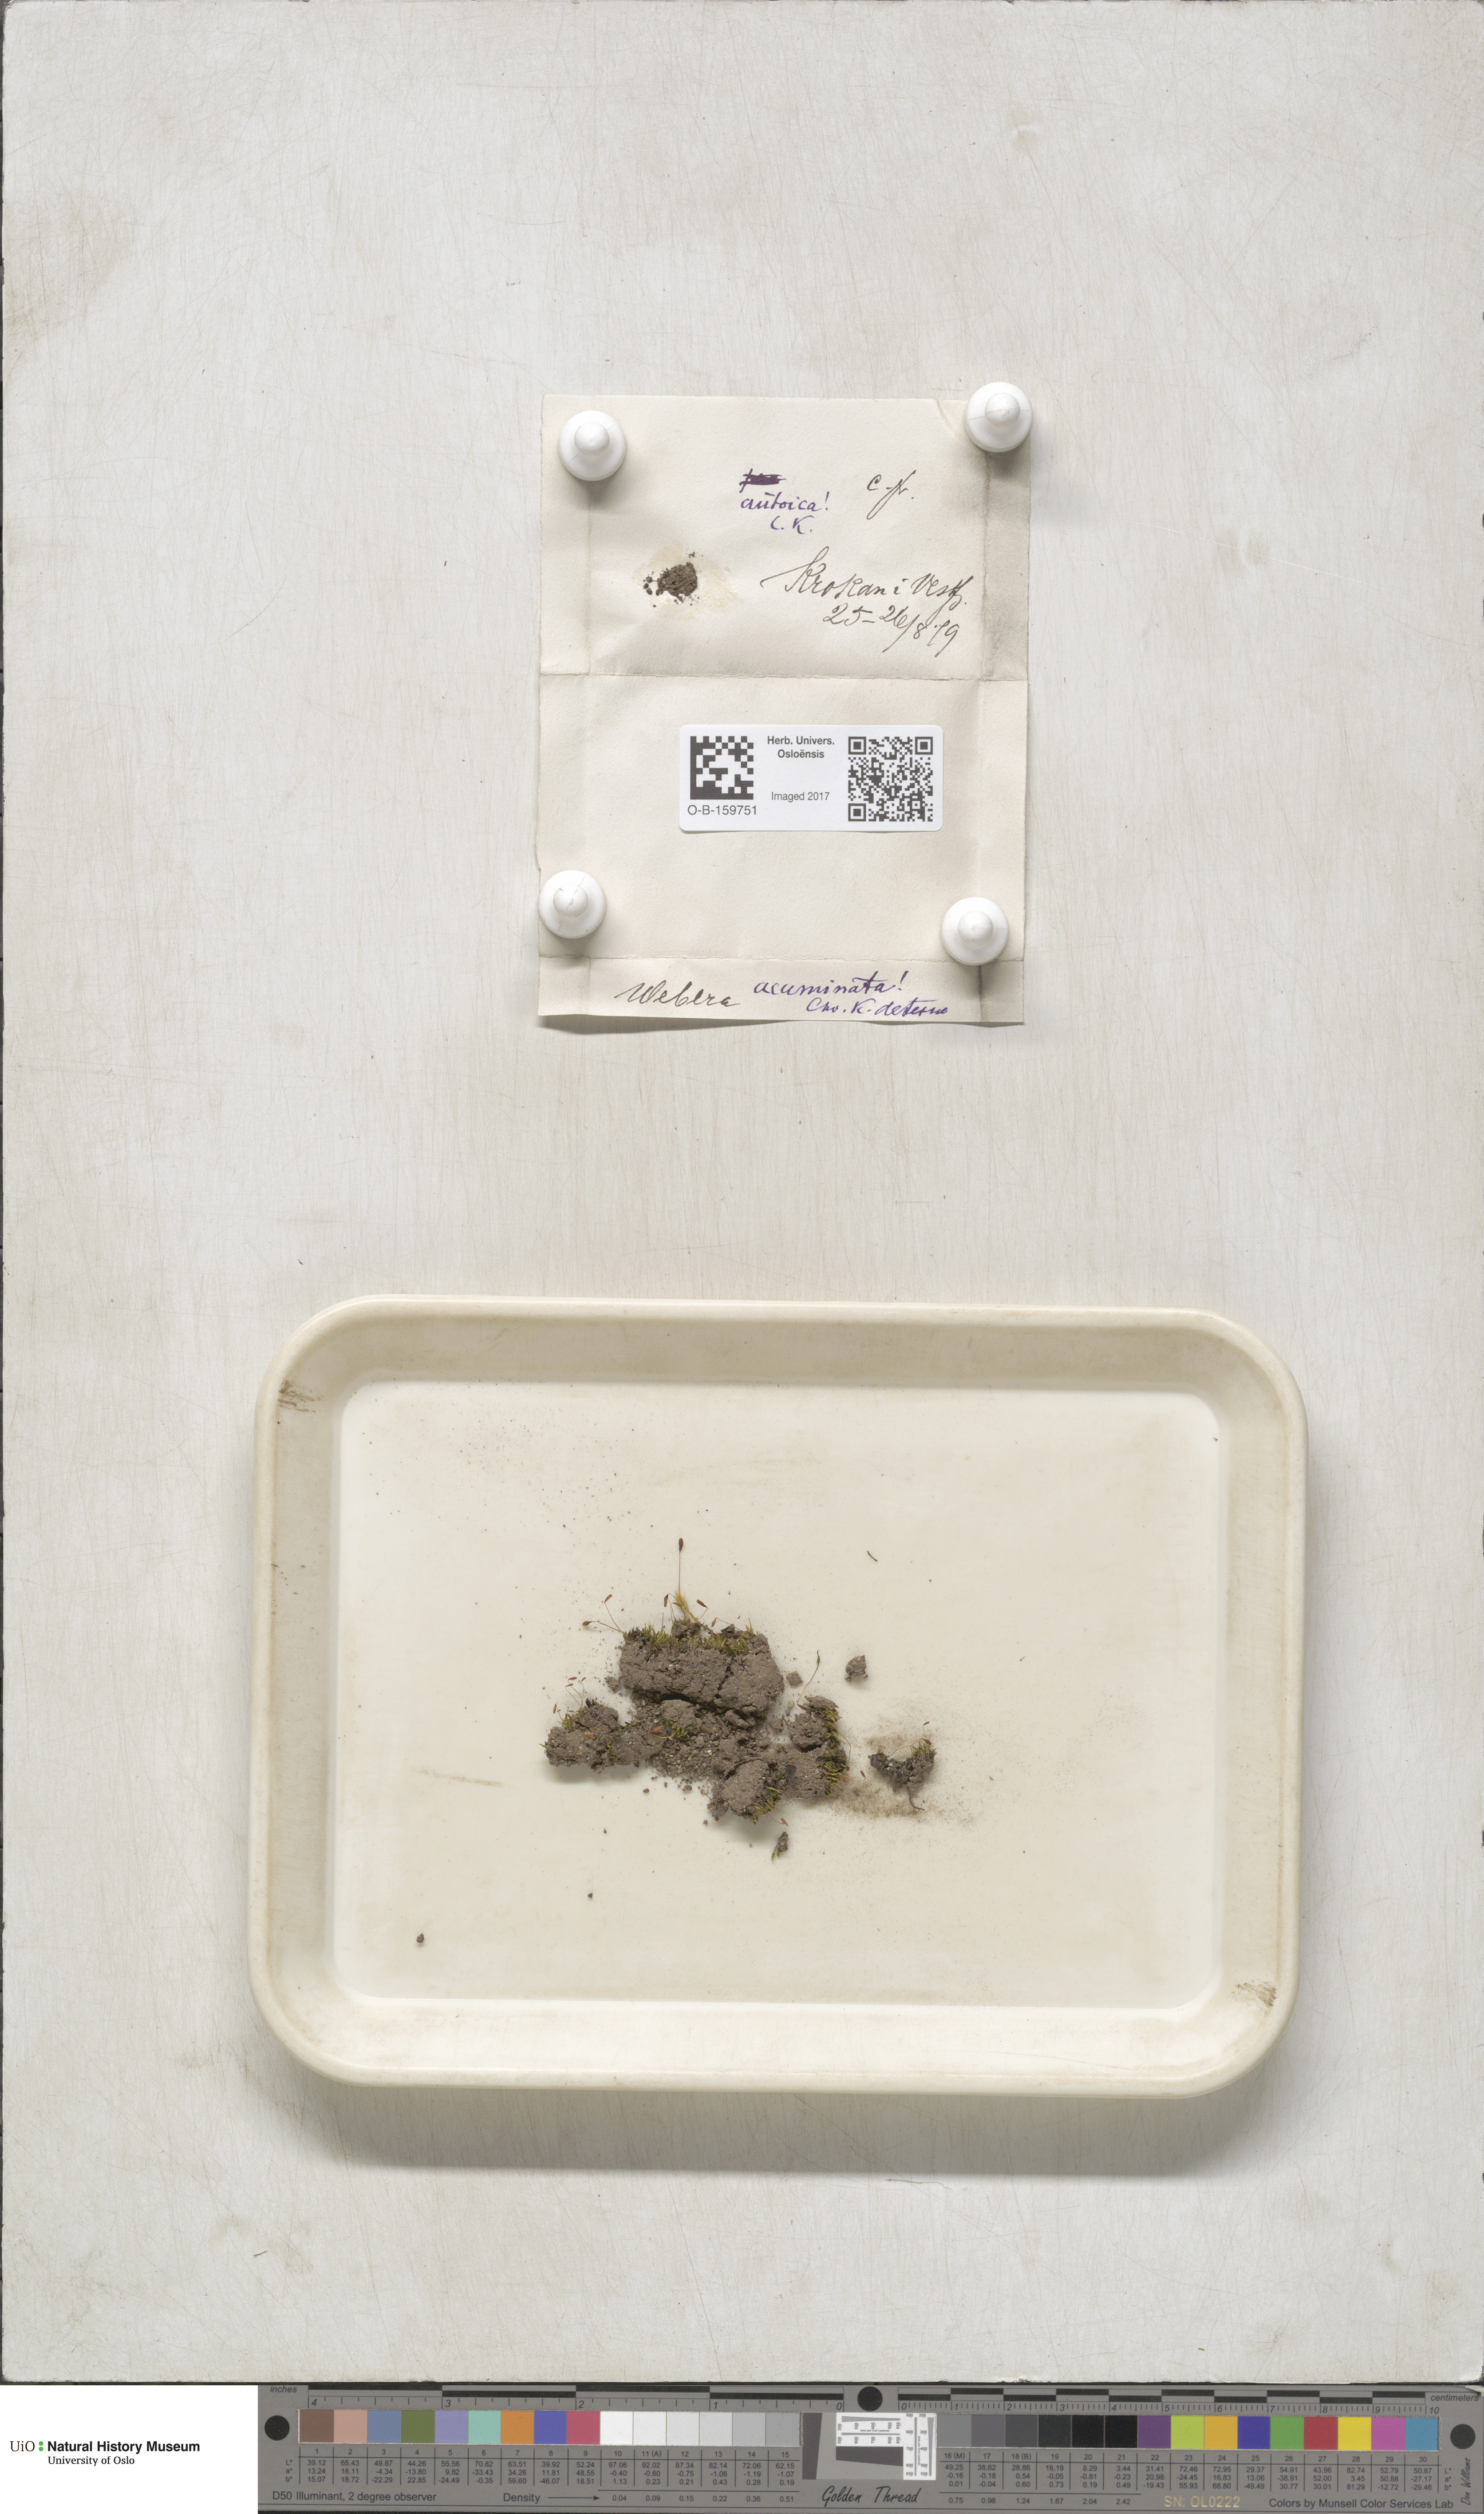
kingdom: Plantae
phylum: Bryophyta
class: Bryopsida
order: Bryales
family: Mniaceae
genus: Pohlia
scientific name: Pohlia elongata
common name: Long-fruited thread-moss
